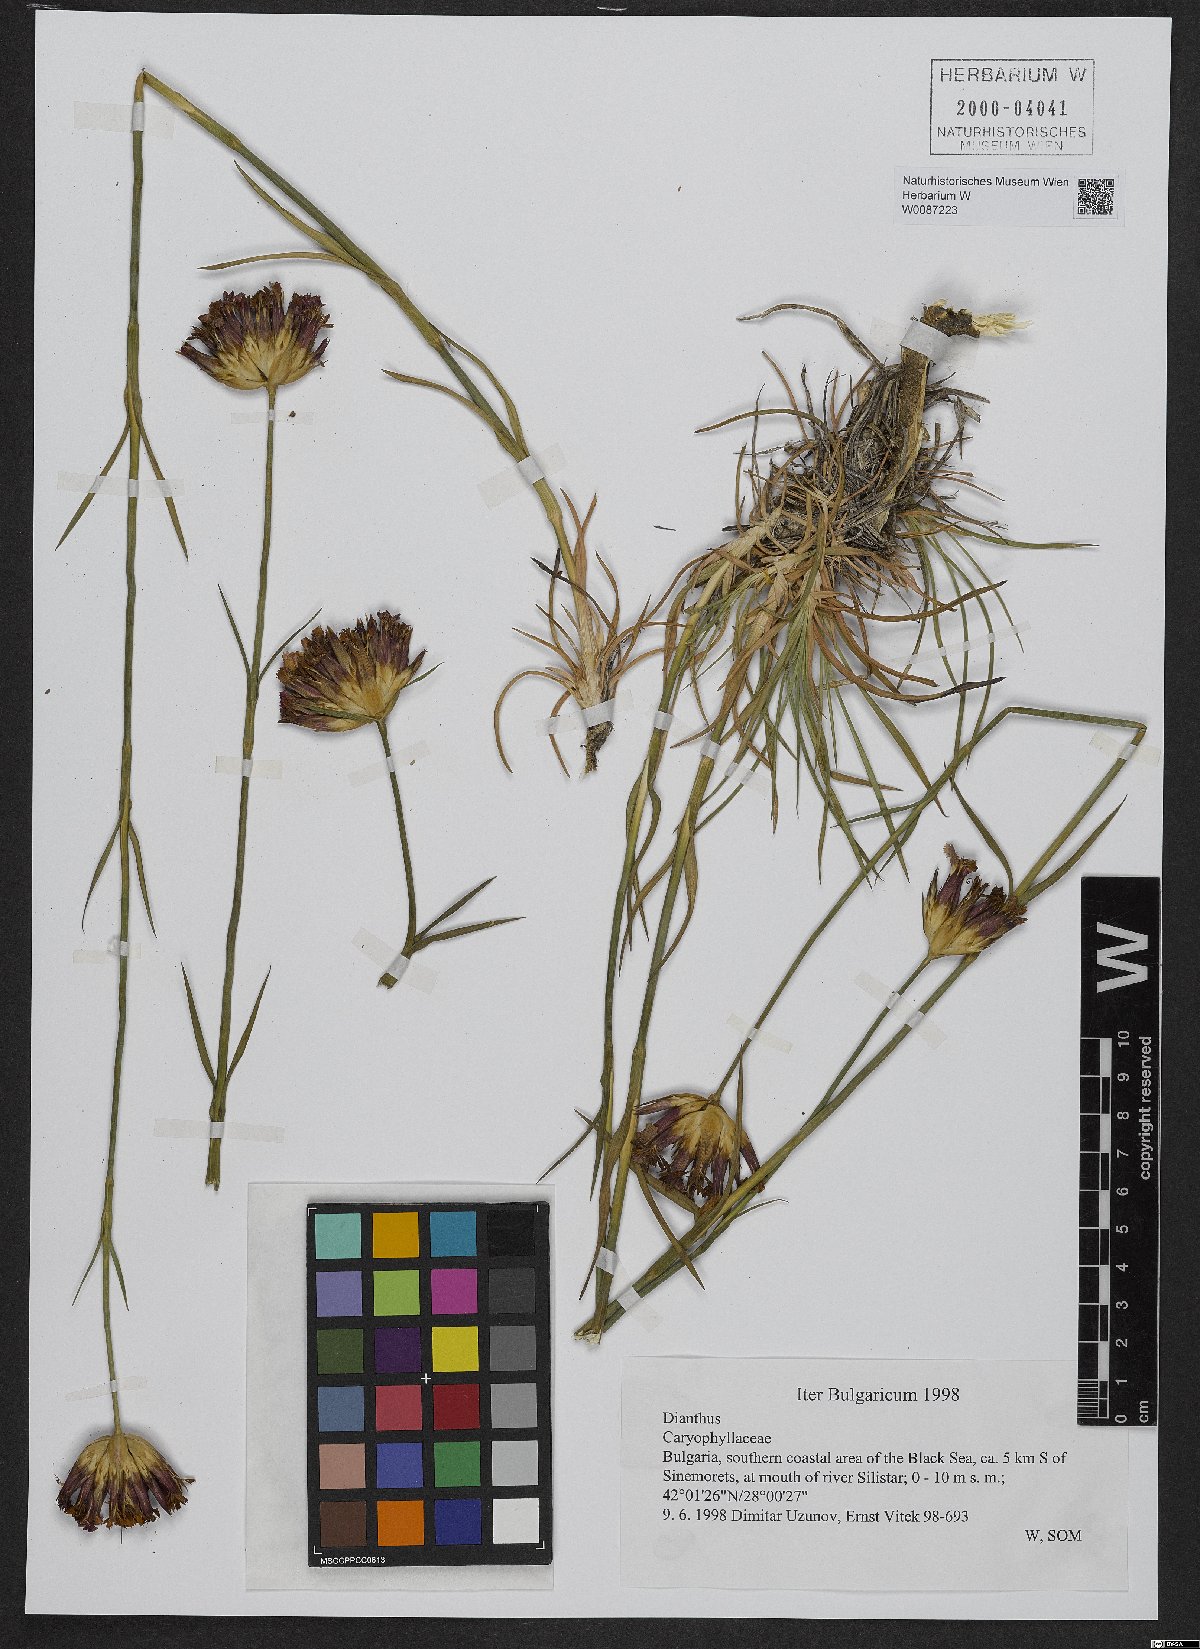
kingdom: Plantae
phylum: Tracheophyta
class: Magnoliopsida
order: Caryophyllales
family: Caryophyllaceae
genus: Dianthus
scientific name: Dianthus giganteus
